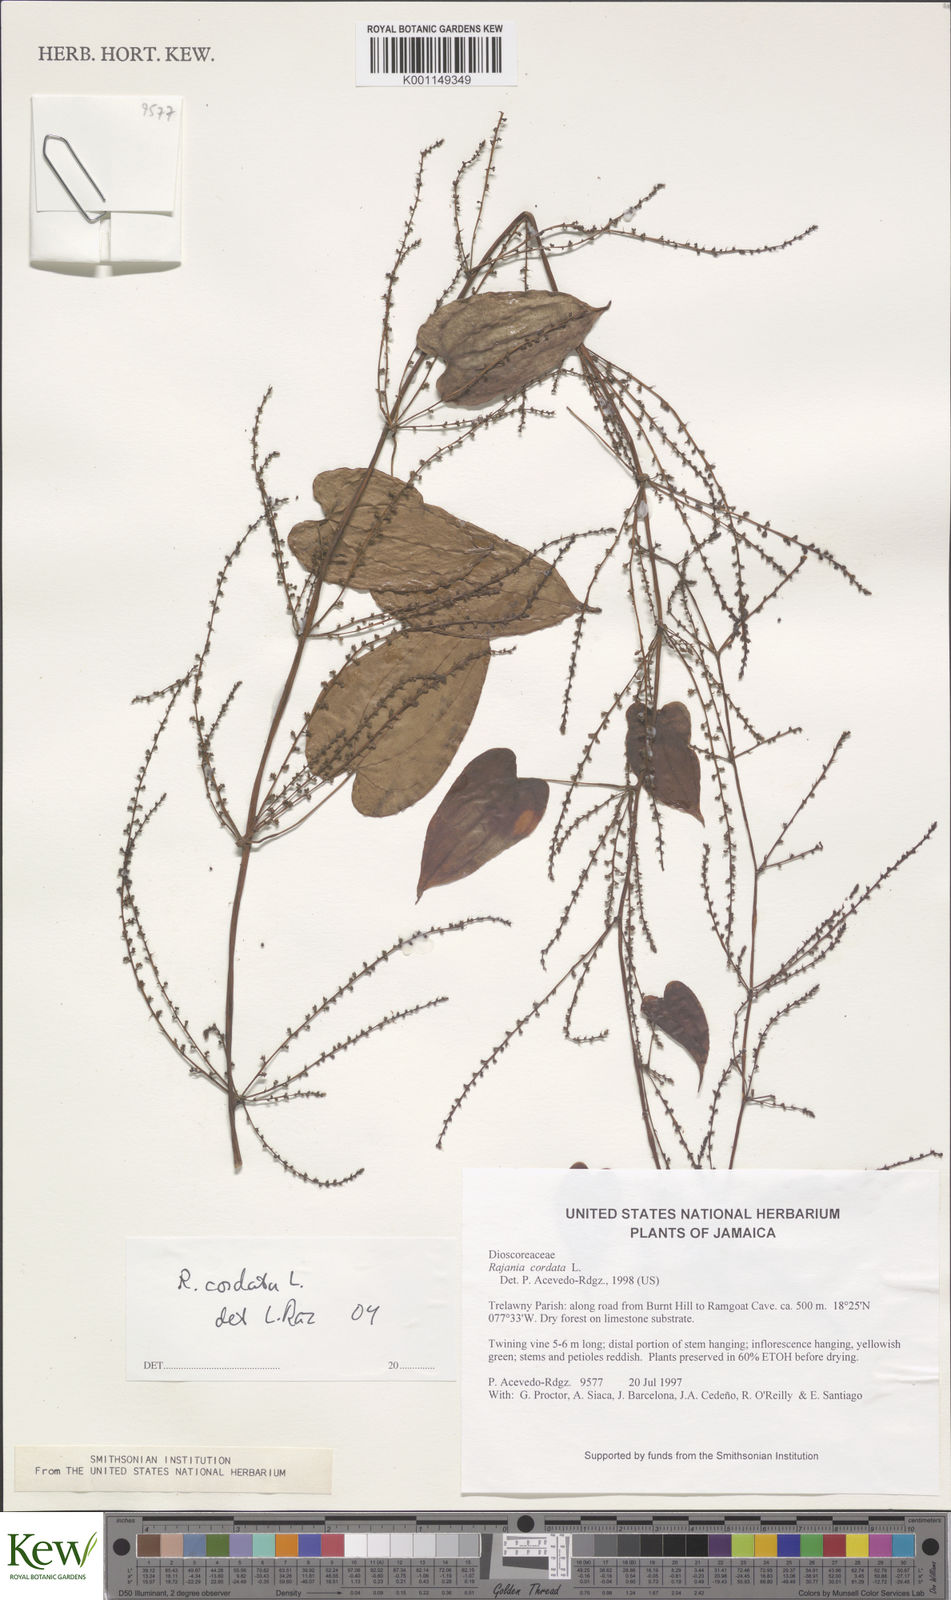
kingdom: Plantae
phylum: Tracheophyta
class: Liliopsida
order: Dioscoreales
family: Dioscoreaceae
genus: Dioscorea
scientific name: Dioscorea
